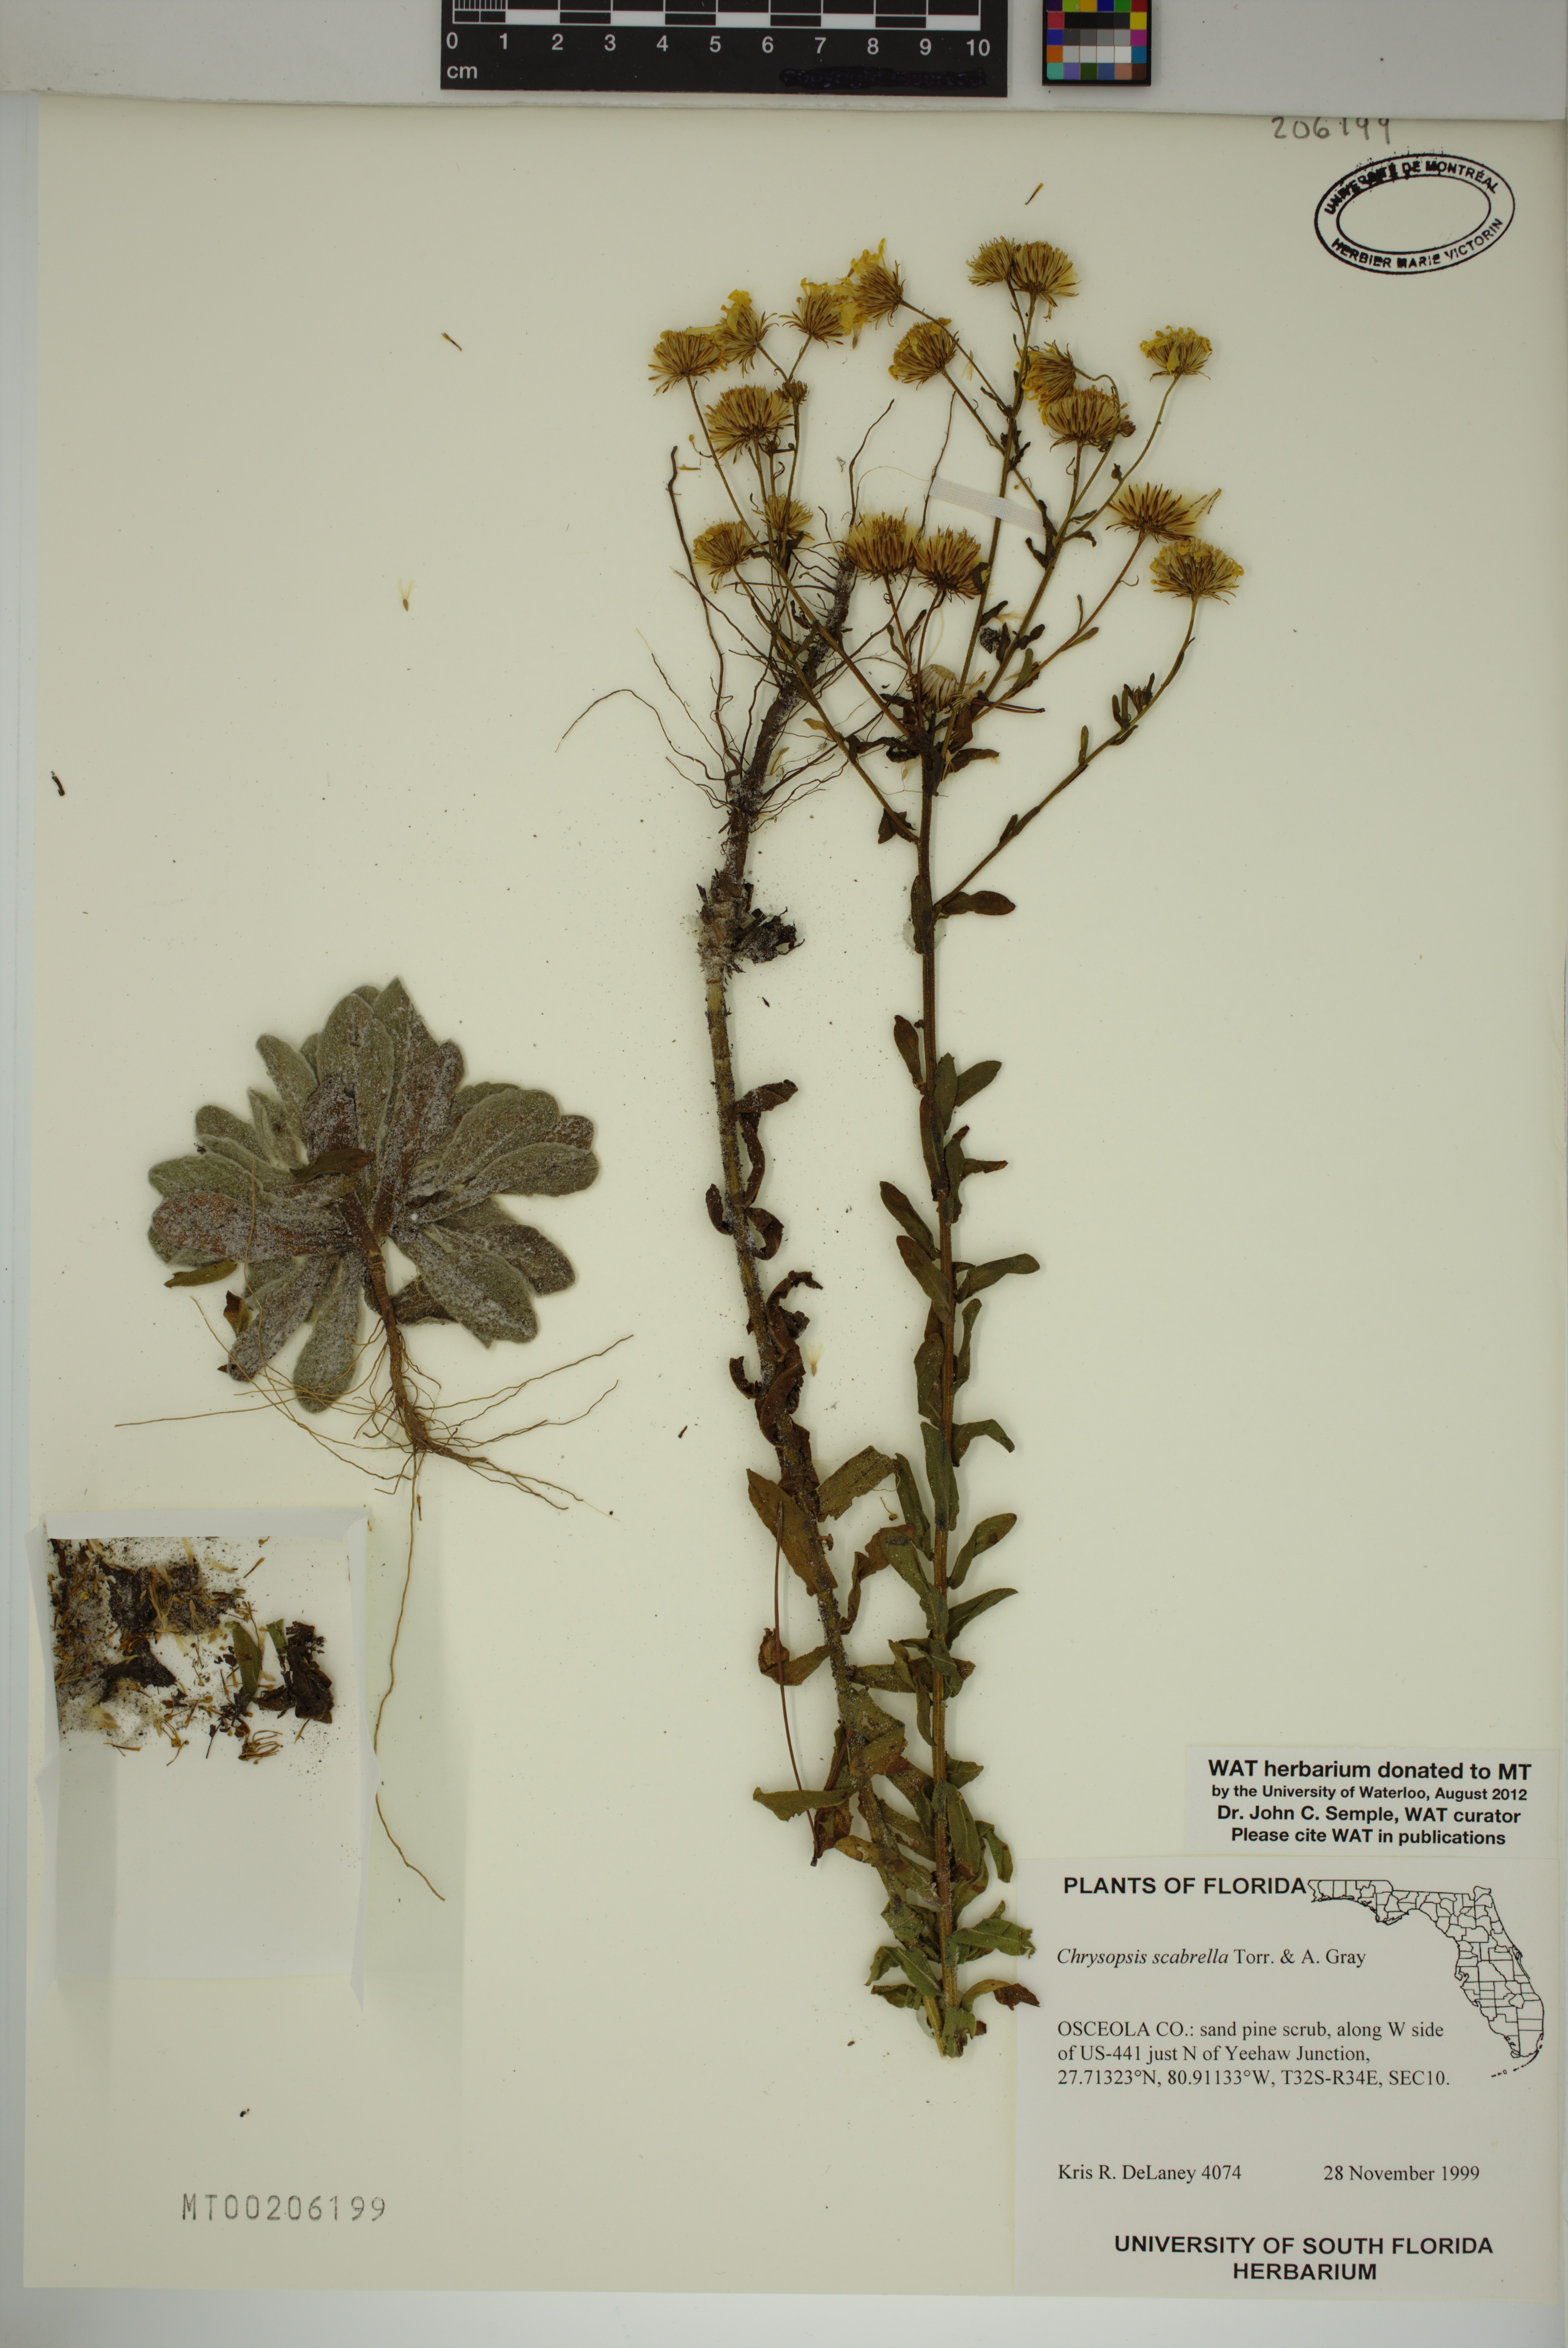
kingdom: Plantae
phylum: Tracheophyta
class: Magnoliopsida
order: Asterales
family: Asteraceae
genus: Chrysopsis
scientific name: Chrysopsis scabrella
